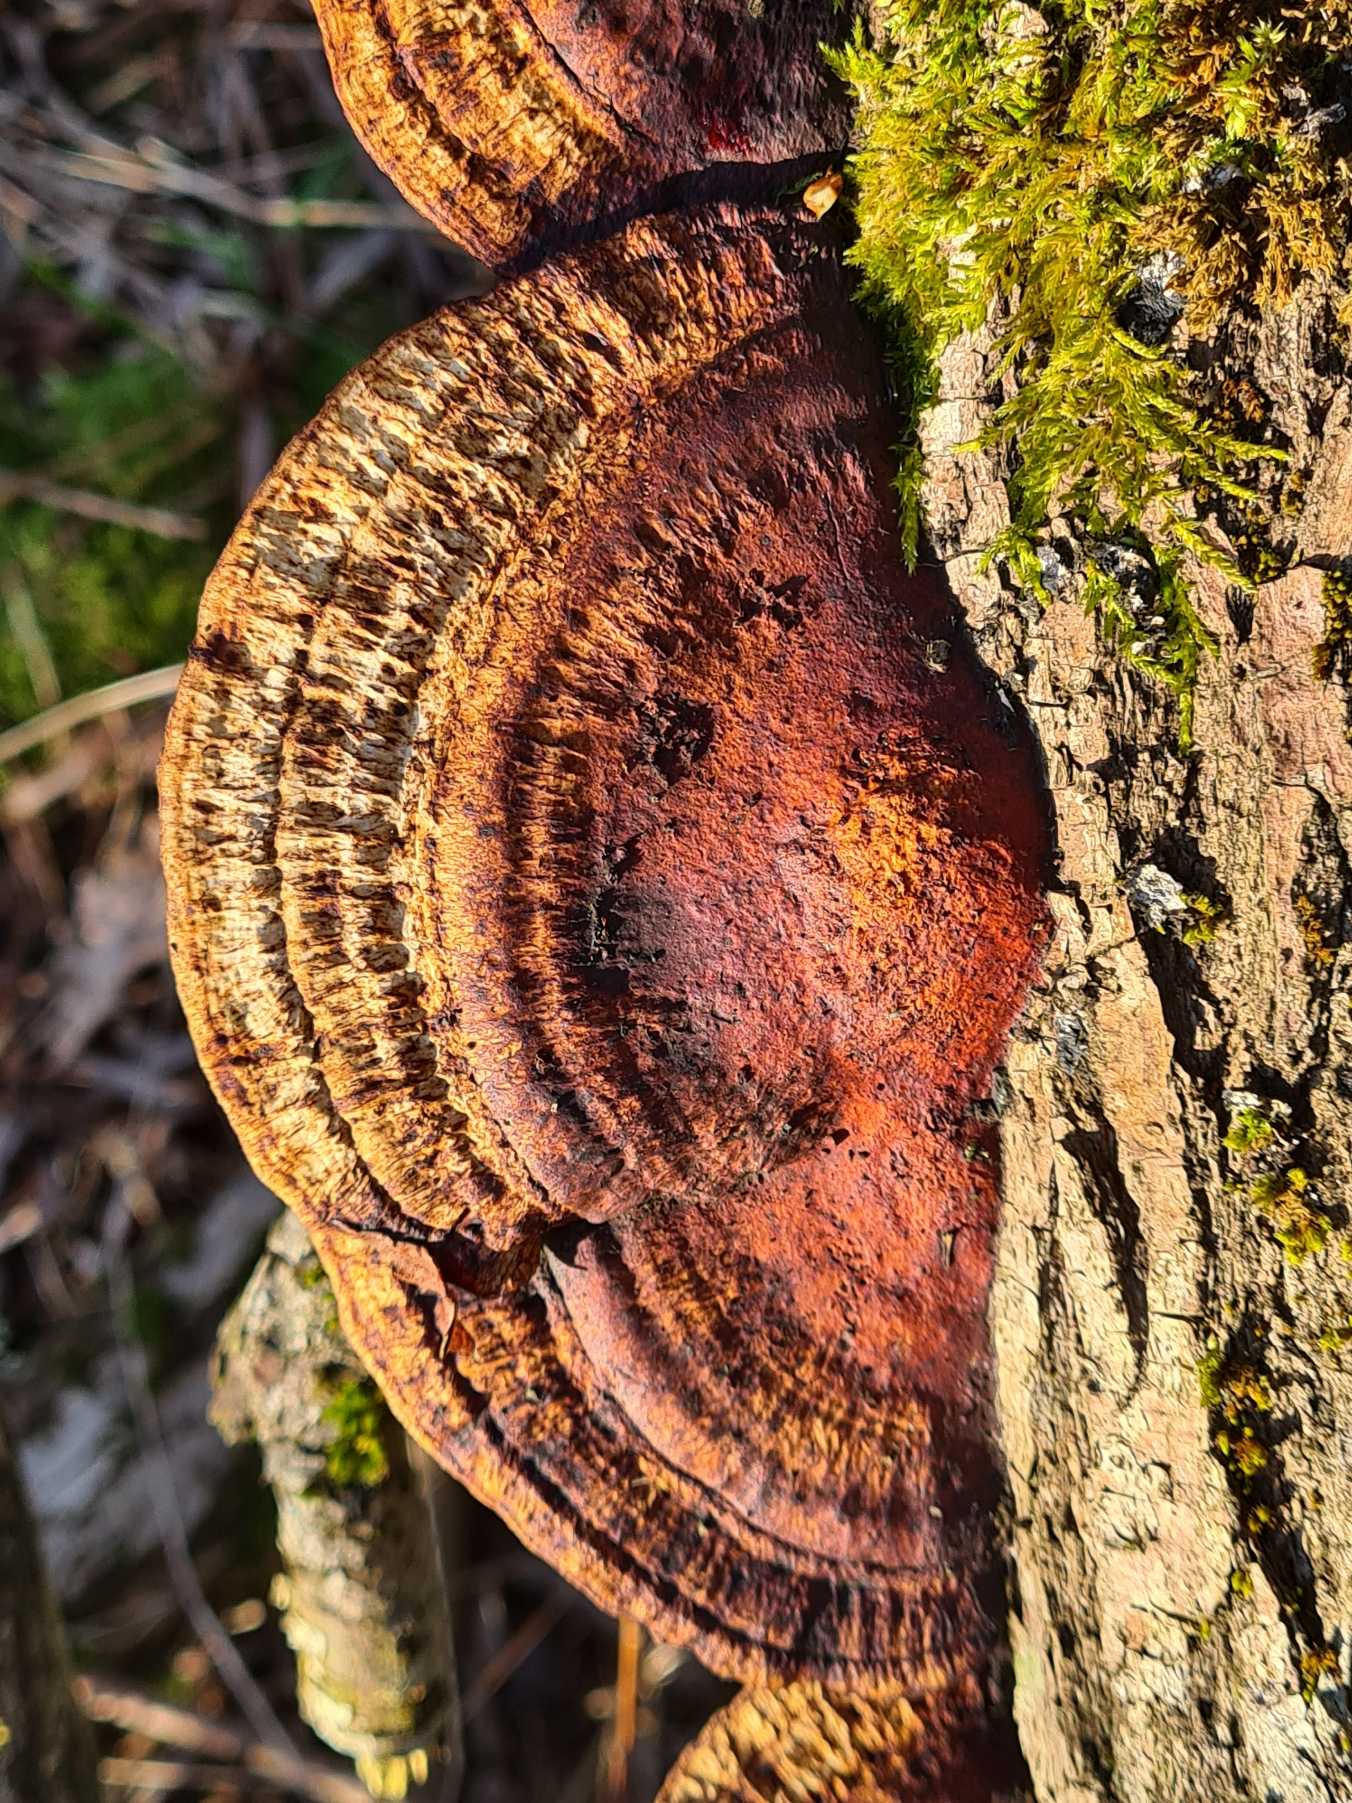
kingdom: Fungi
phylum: Basidiomycota
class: Agaricomycetes
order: Polyporales
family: Polyporaceae
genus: Daedaleopsis
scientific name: Daedaleopsis confragosa
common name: Rødmende læderporesvamp
